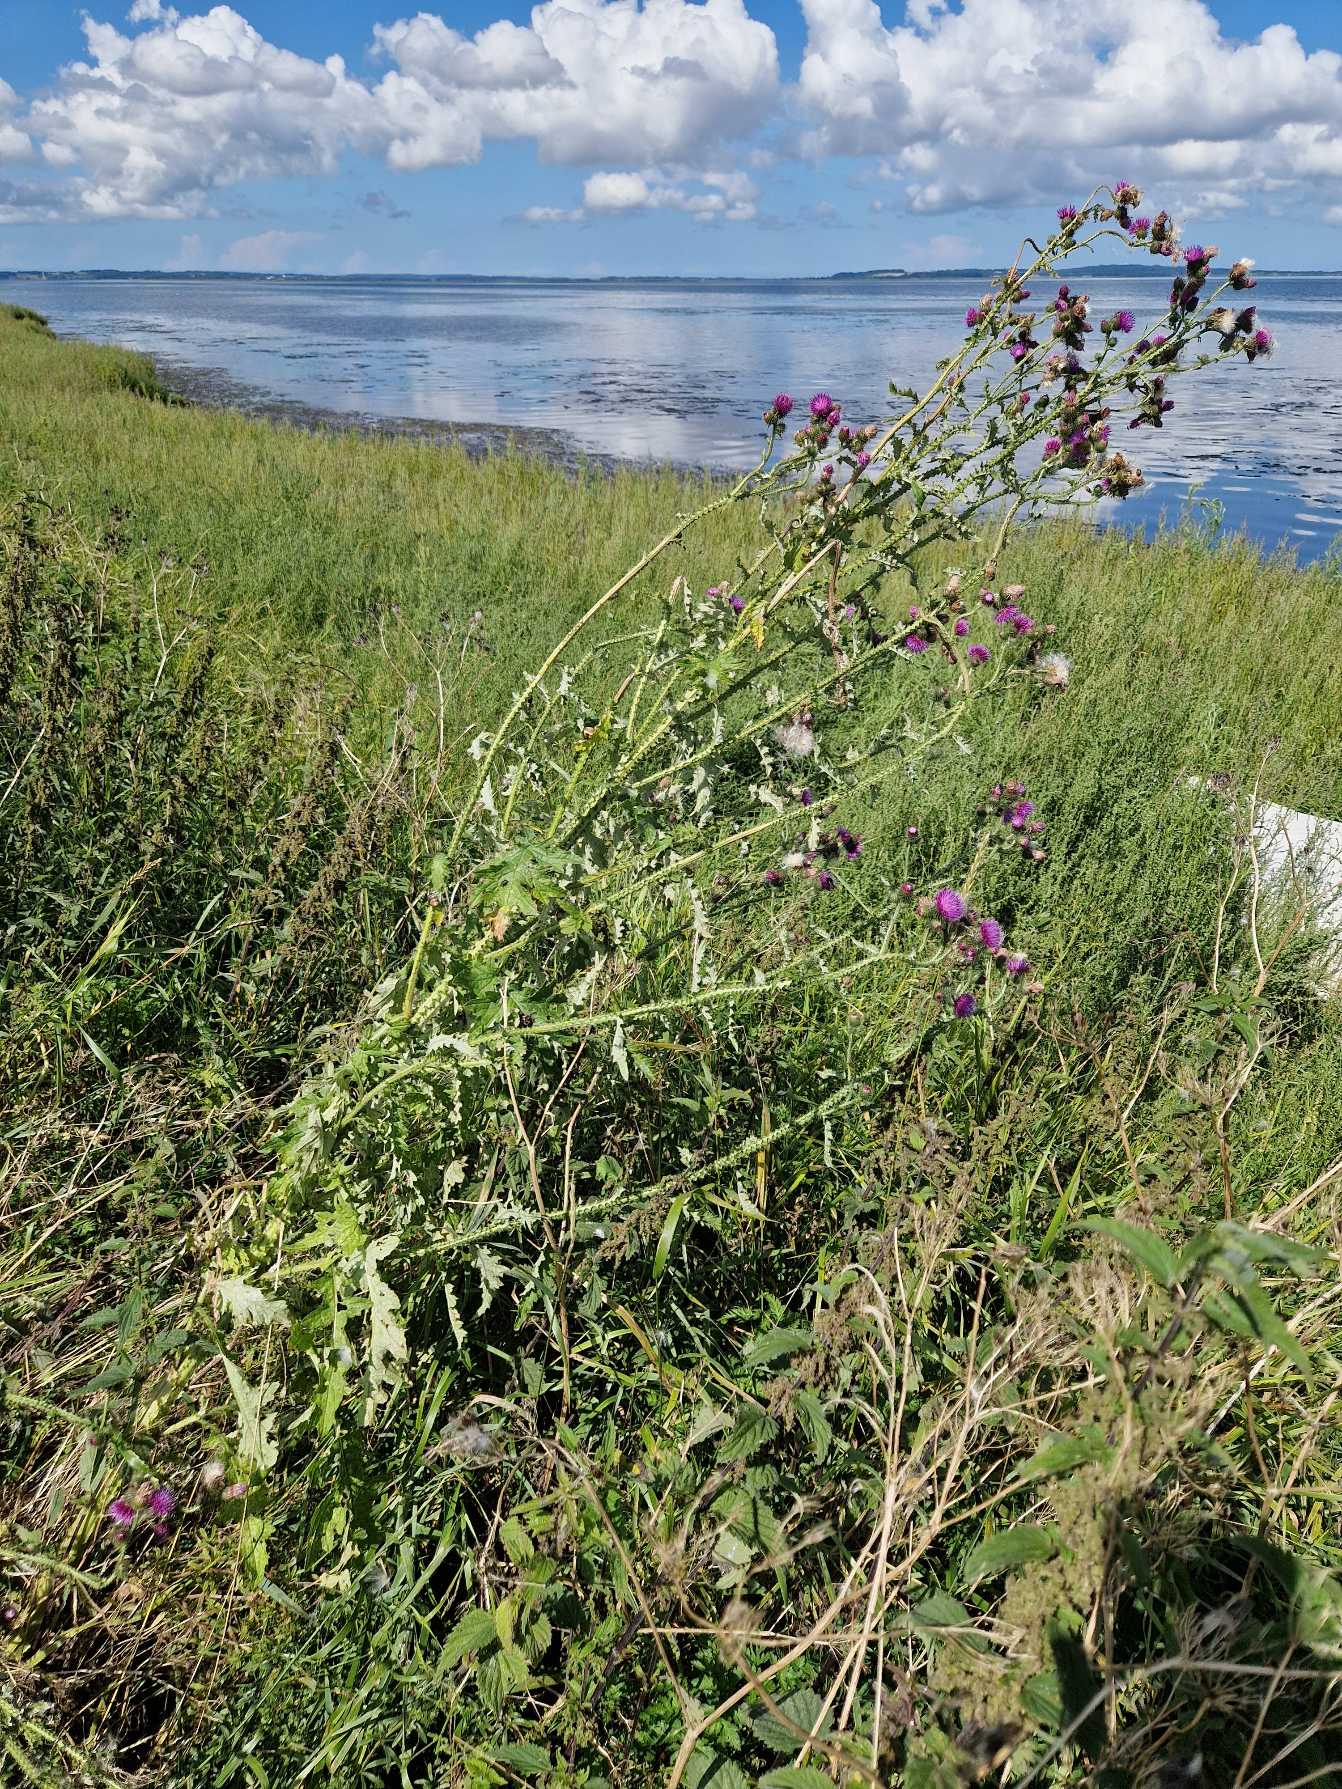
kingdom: Plantae
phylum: Tracheophyta
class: Magnoliopsida
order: Asterales
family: Asteraceae
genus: Carduus
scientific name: Carduus crispus
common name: Kruset tidsel
